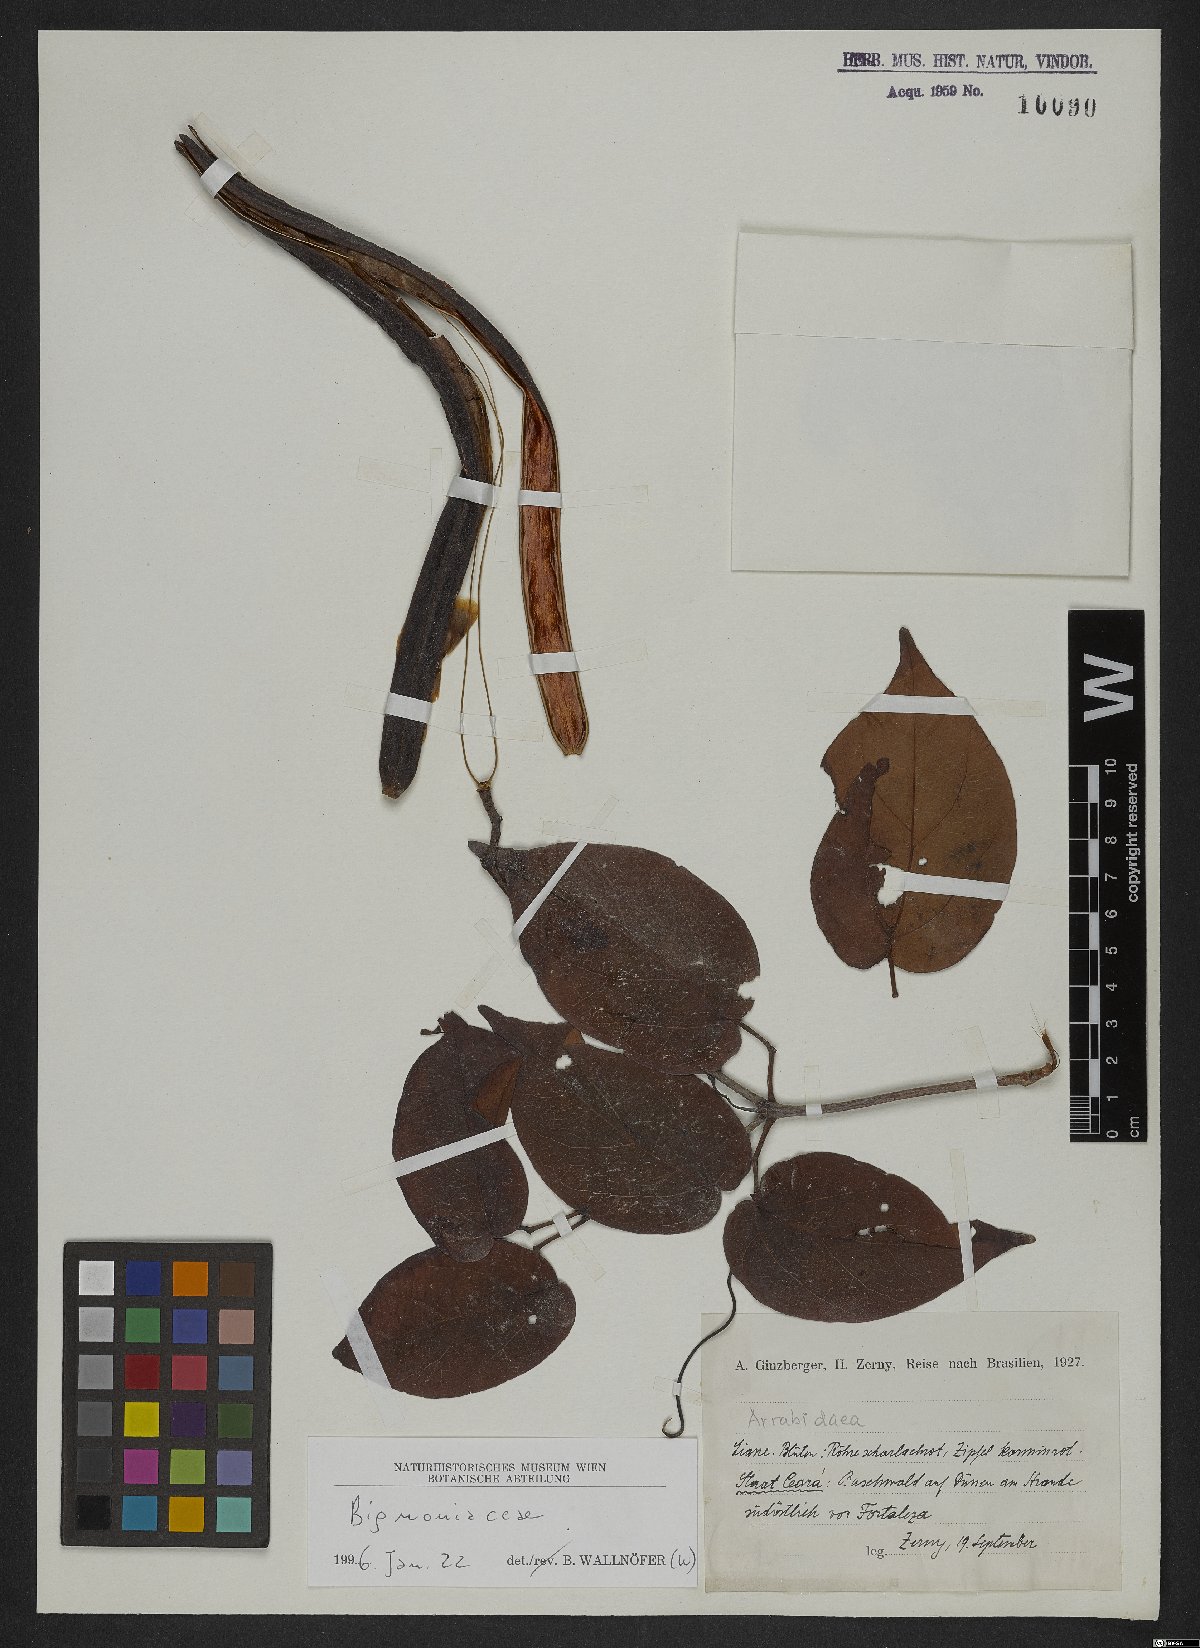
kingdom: Plantae
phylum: Tracheophyta
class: Magnoliopsida
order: Rosales
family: Rhamnaceae
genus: Arrabidaea
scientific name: Arrabidaea
